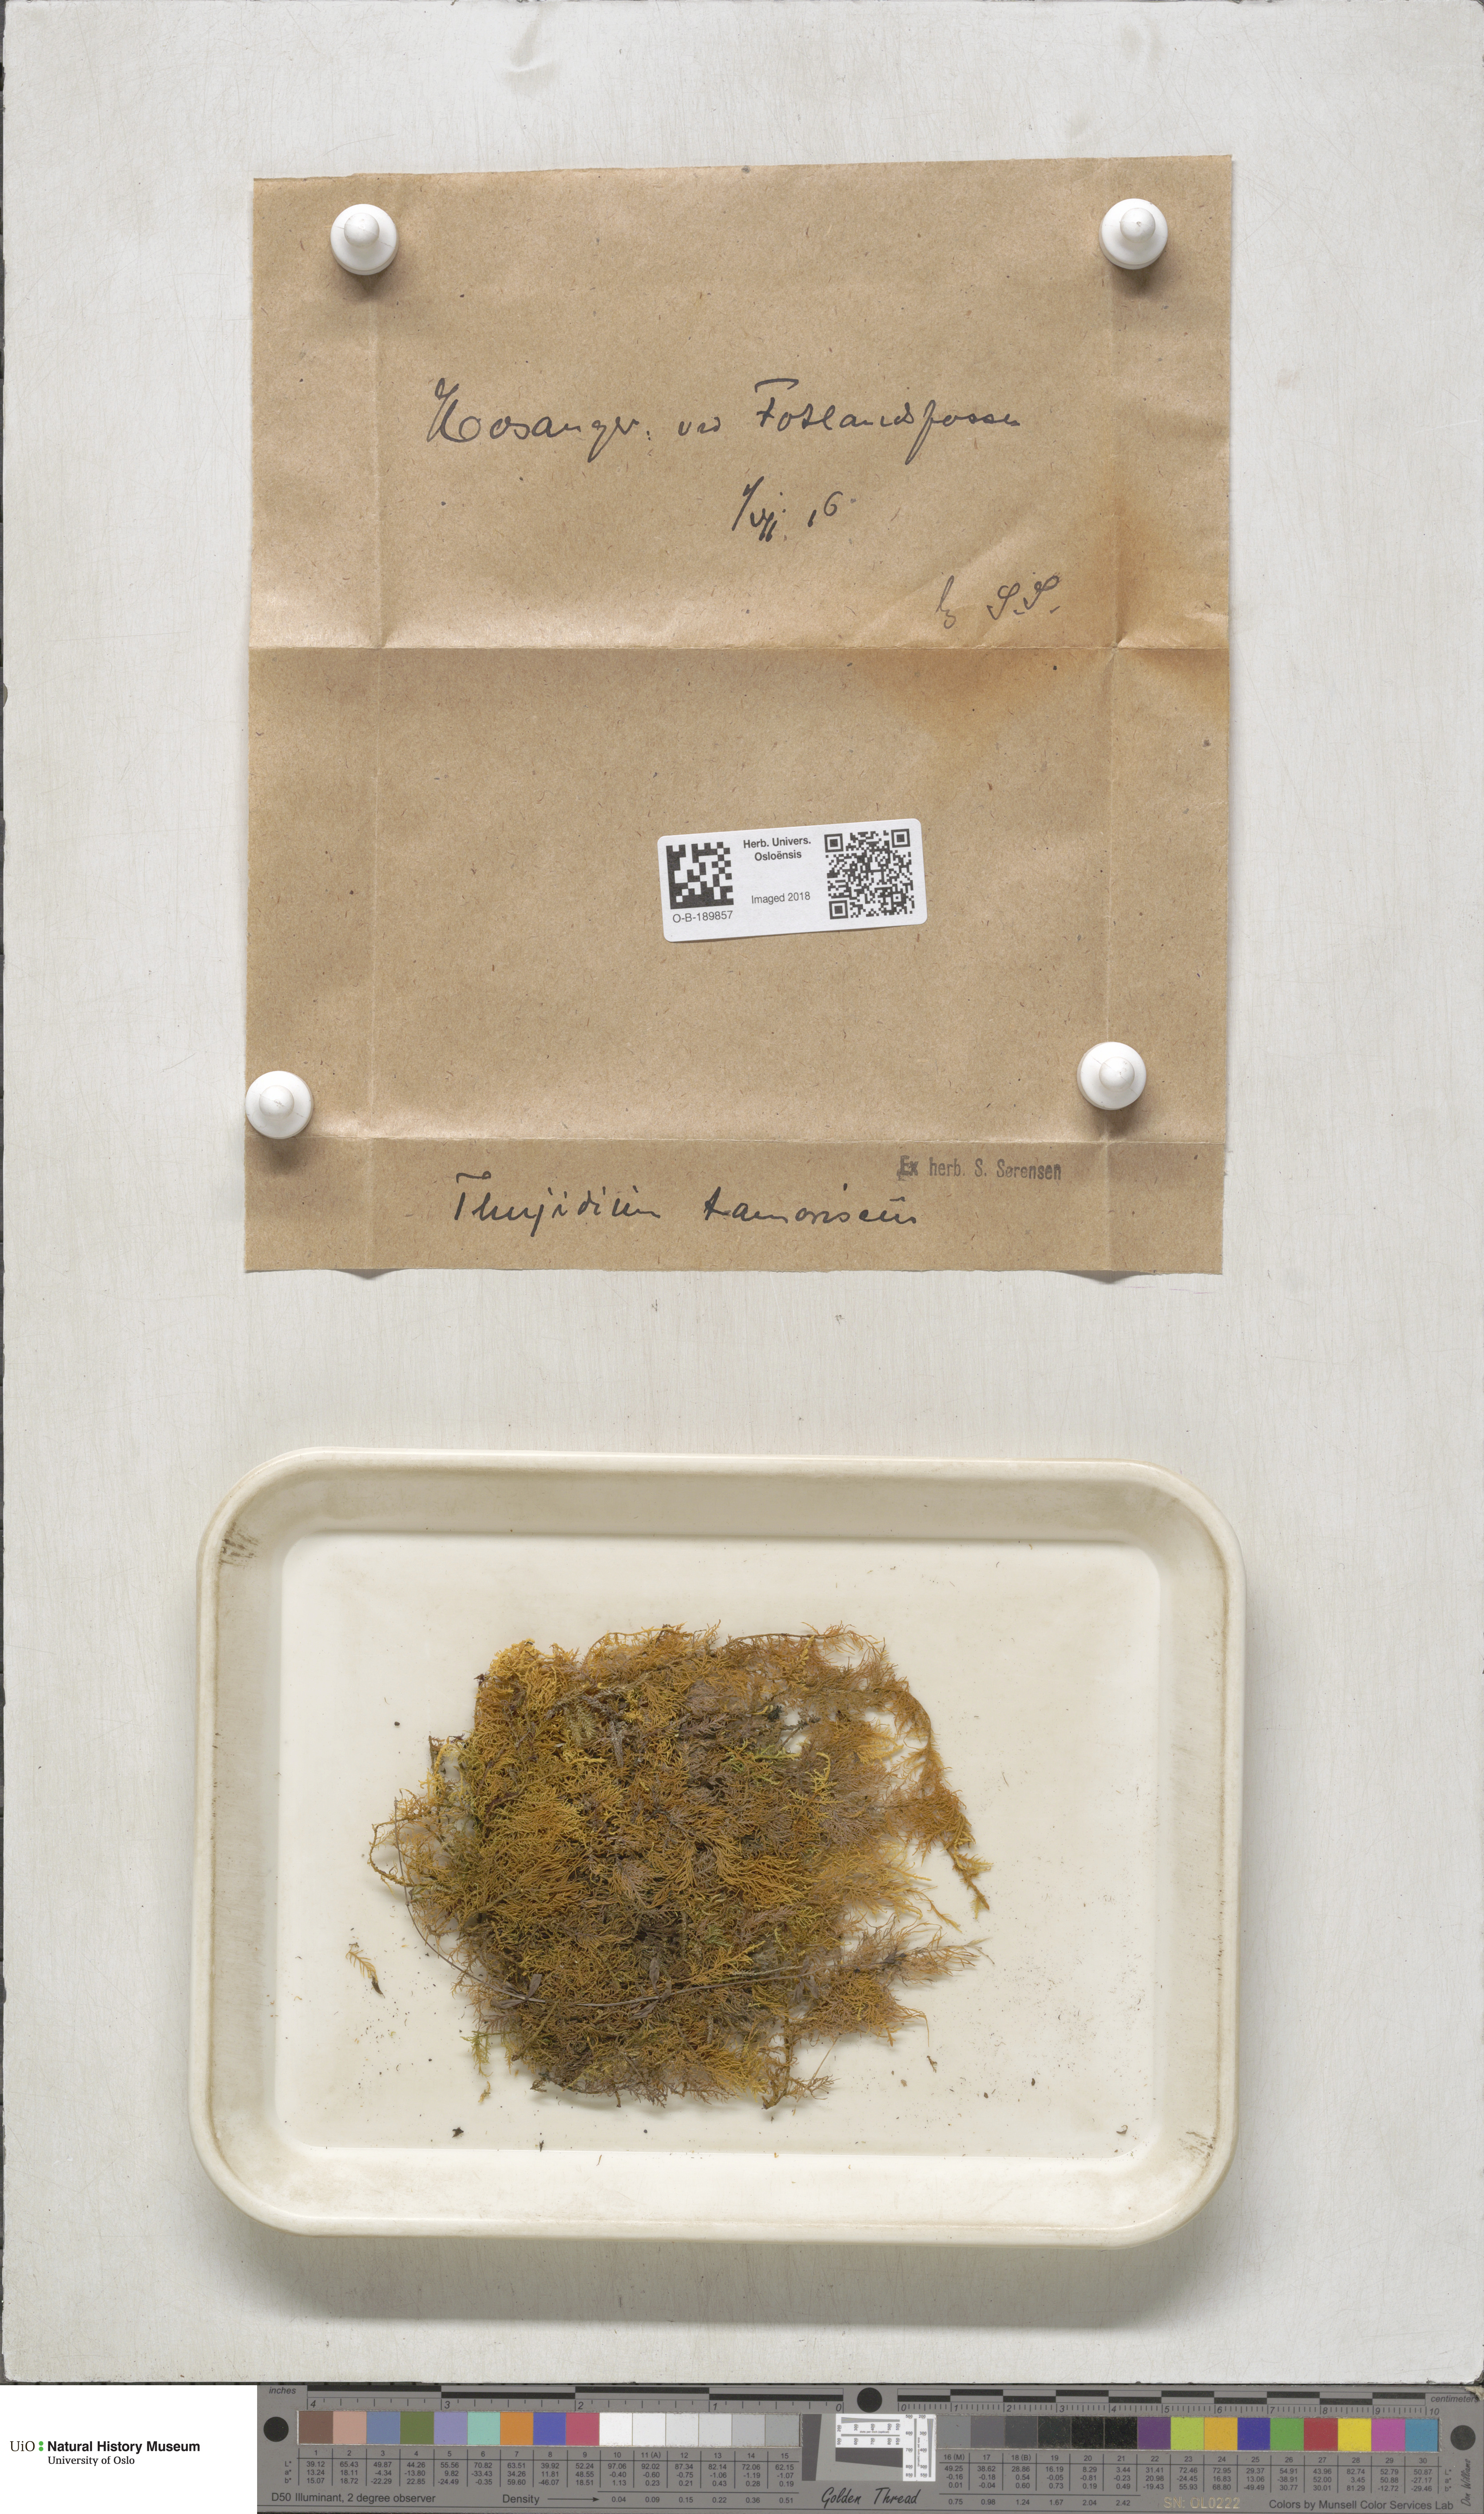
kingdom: Plantae
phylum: Bryophyta
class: Bryopsida
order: Hypnales
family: Thuidiaceae
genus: Thuidium
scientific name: Thuidium tamariscinum
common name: Common tamarisk-moss
